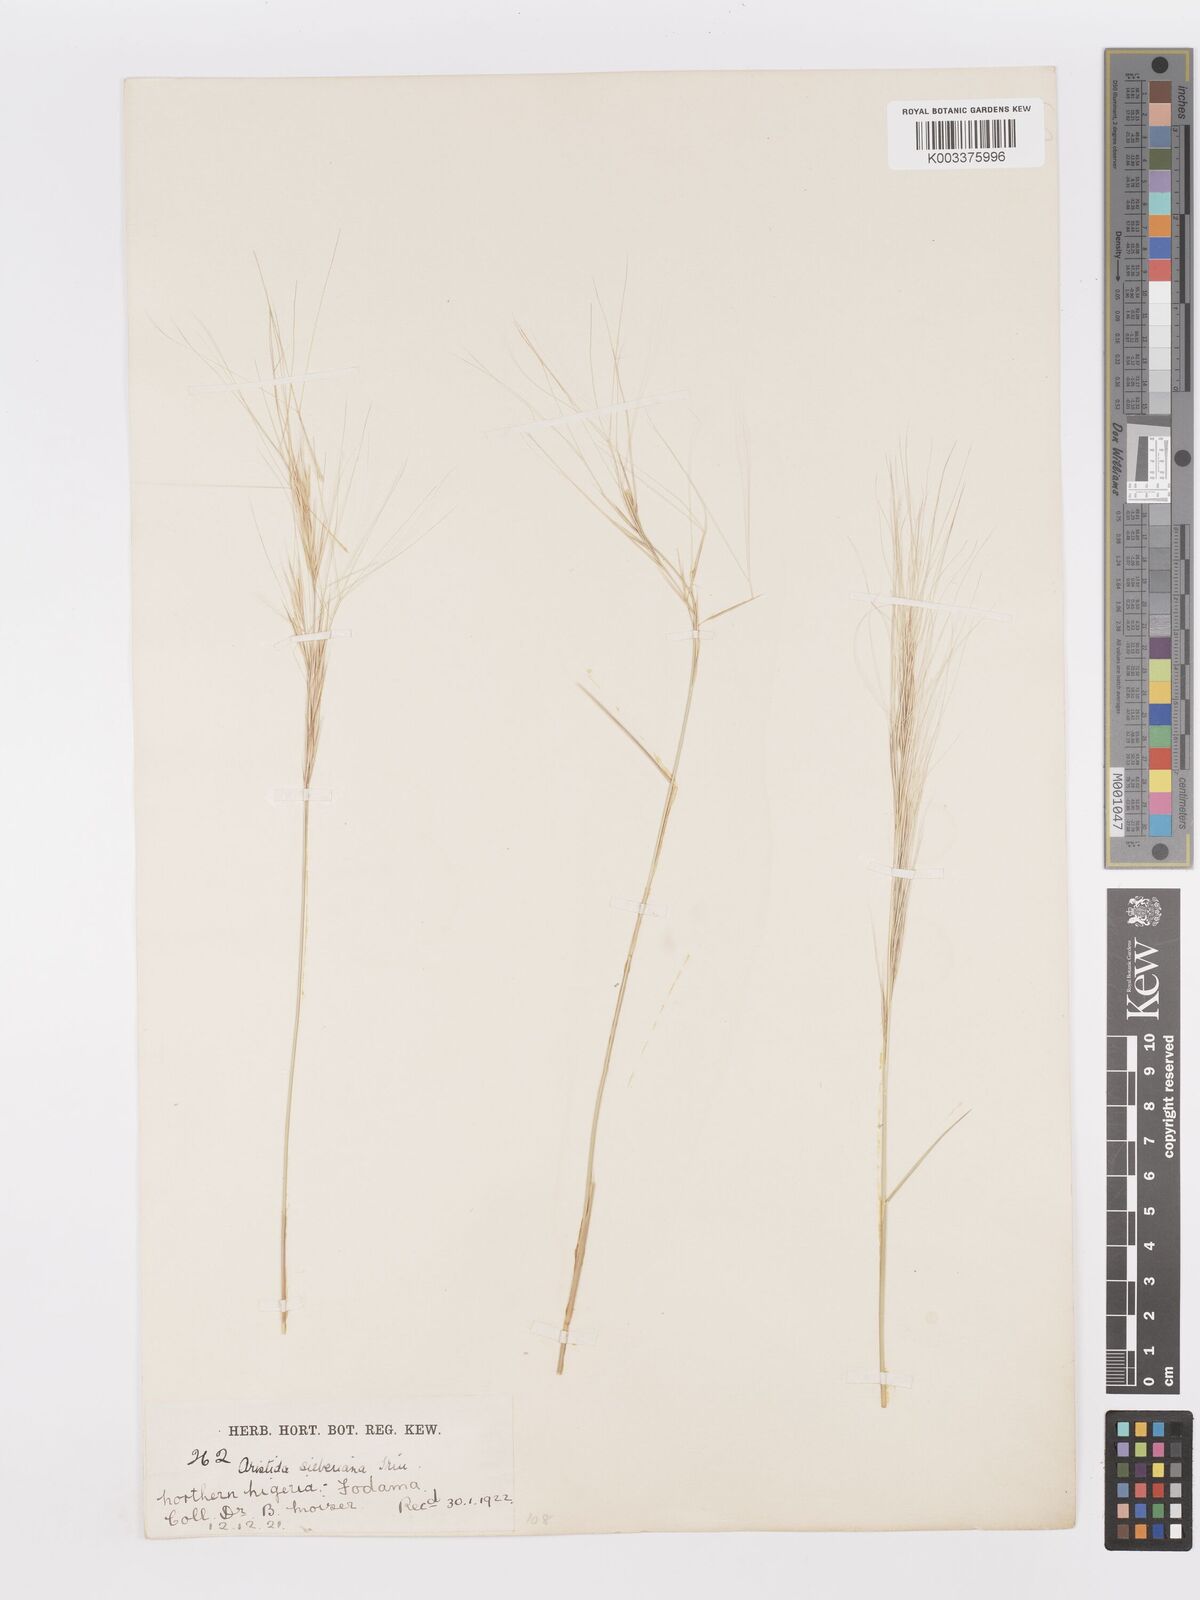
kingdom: Plantae
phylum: Tracheophyta
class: Liliopsida
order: Poales
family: Poaceae
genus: Aristida
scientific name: Aristida sieberiana
